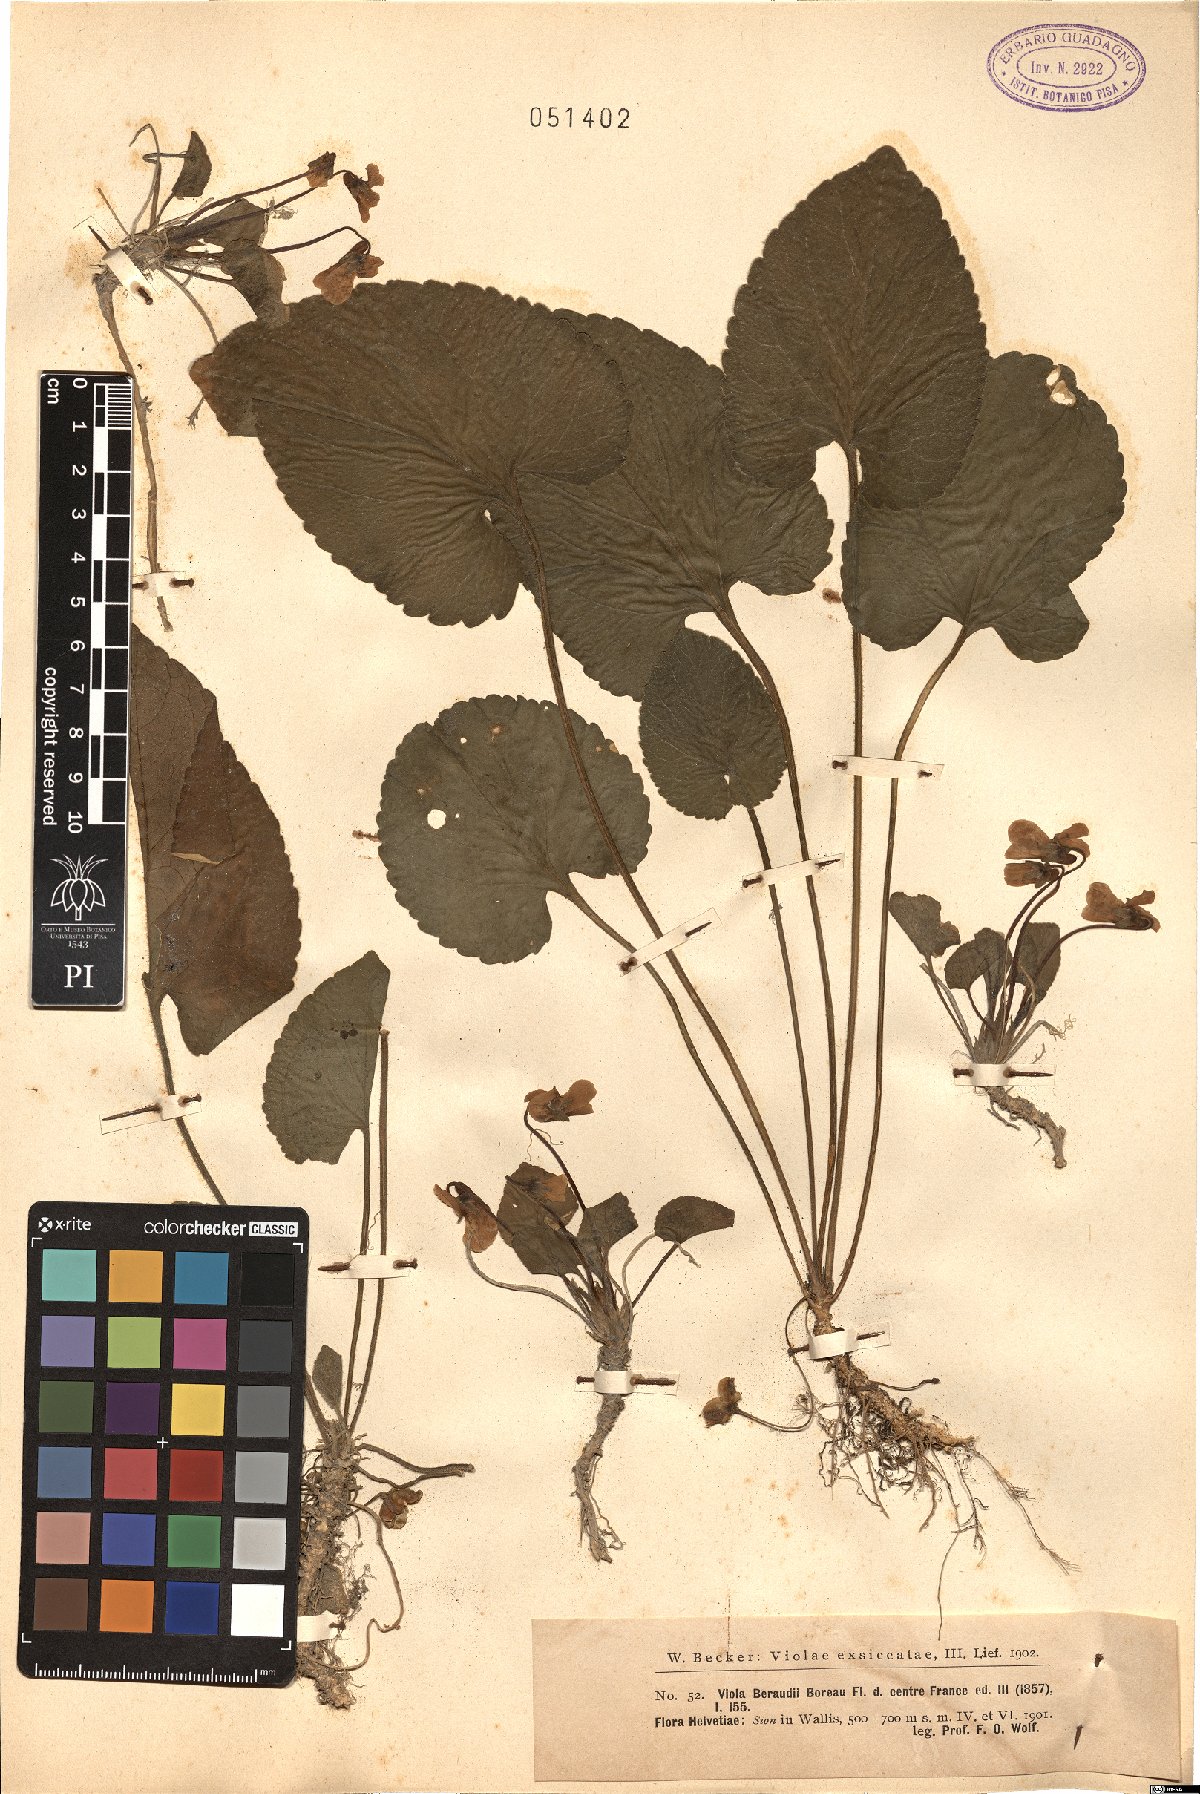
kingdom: Plantae
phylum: Tracheophyta
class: Magnoliopsida
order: Malpighiales
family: Violaceae
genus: Viola
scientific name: Viola suavis
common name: Russian violet
